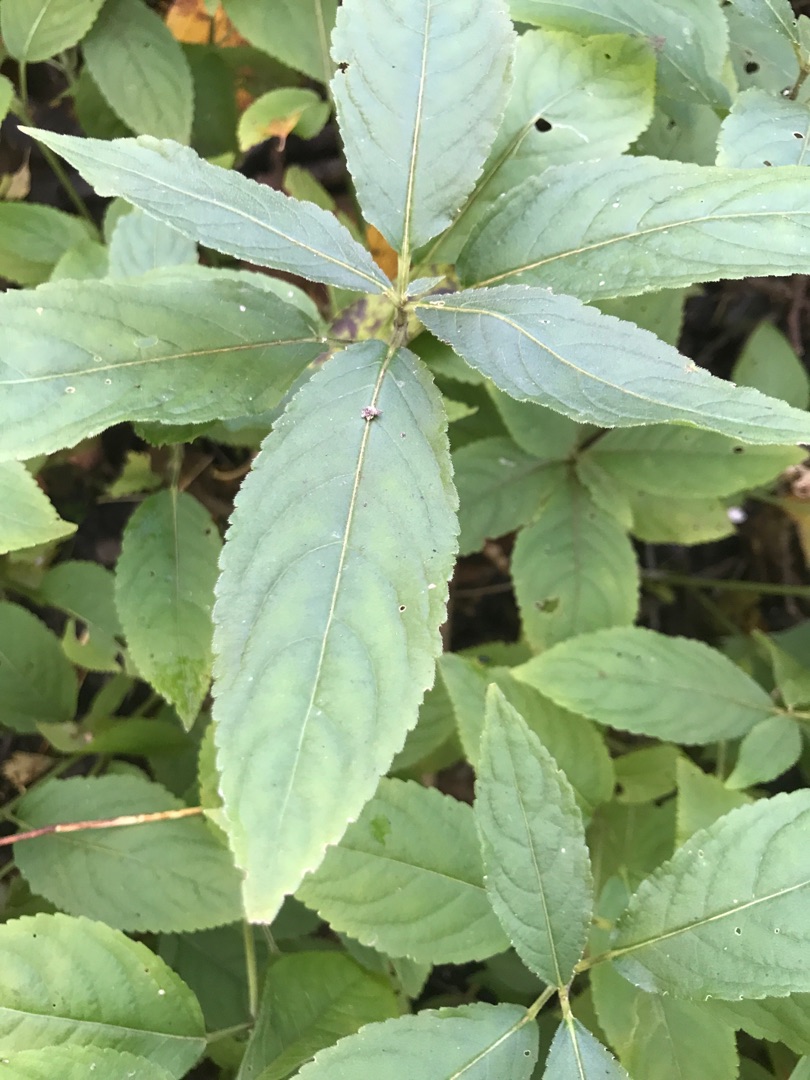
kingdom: Plantae
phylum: Tracheophyta
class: Magnoliopsida
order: Malpighiales
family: Euphorbiaceae
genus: Mercurialis
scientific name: Mercurialis perennis
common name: Almindelig bingelurt
